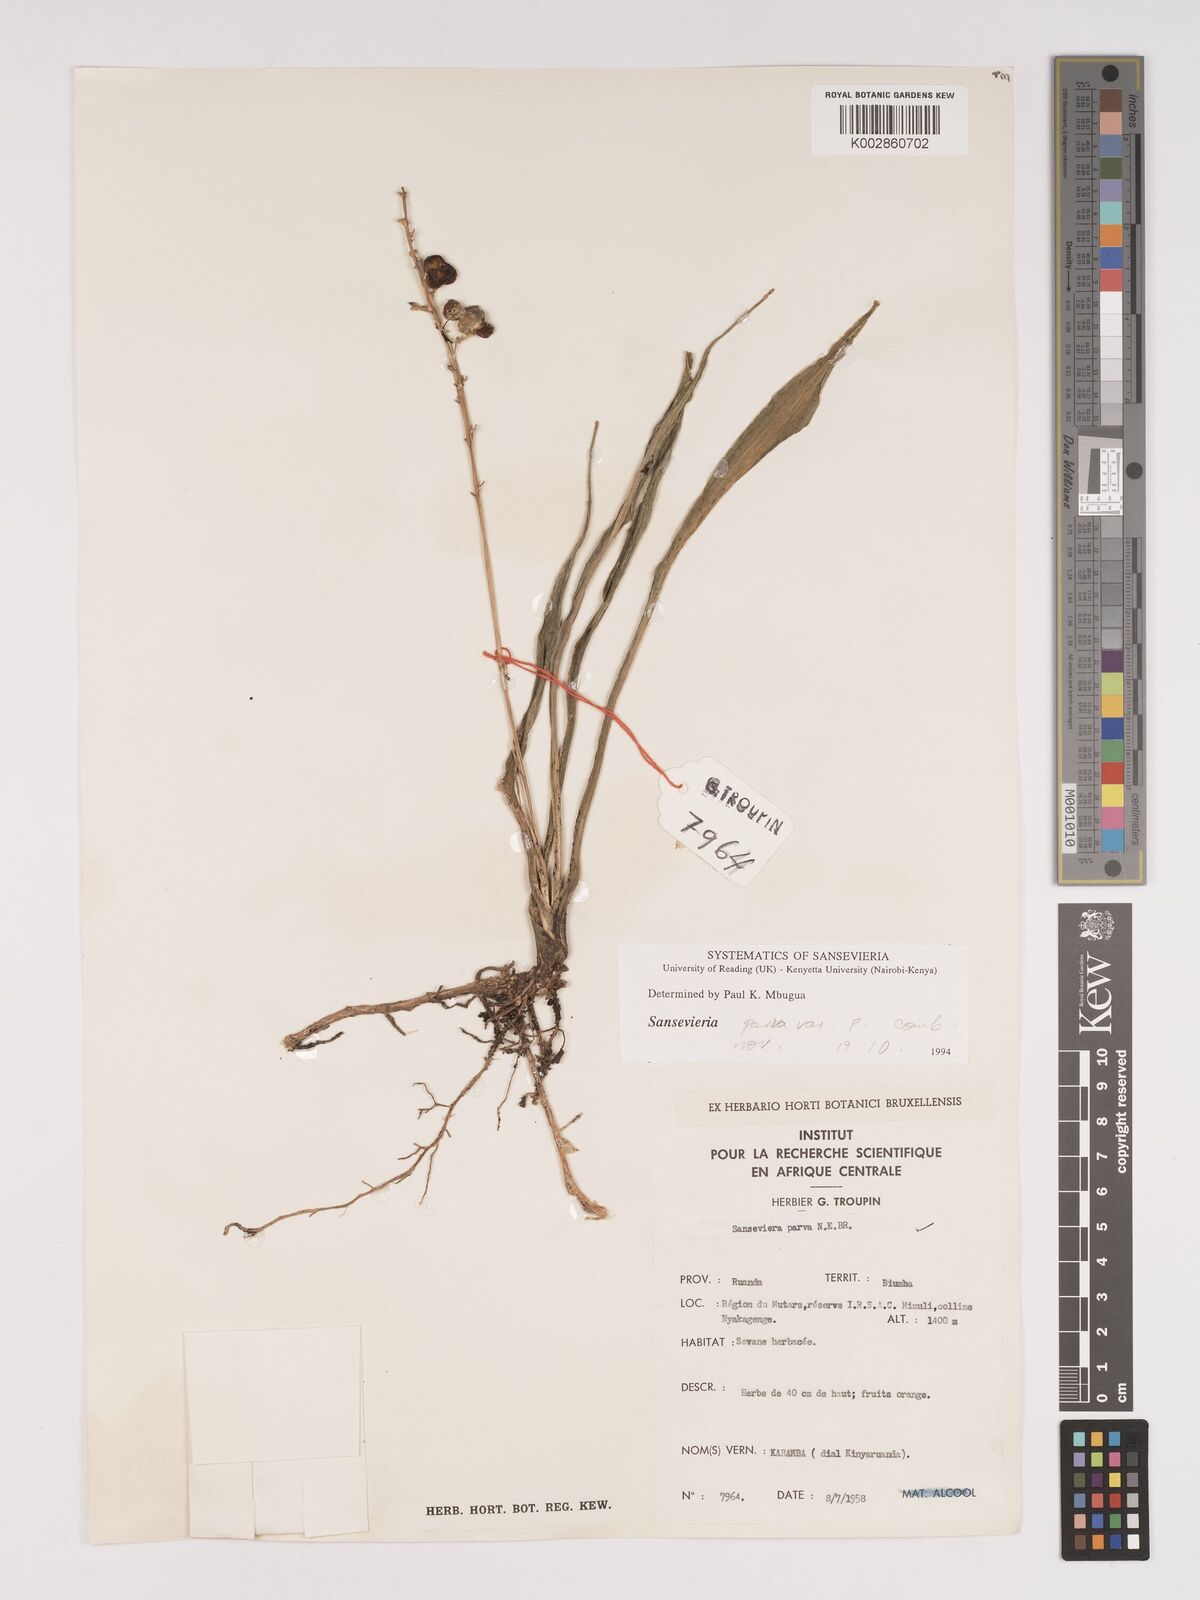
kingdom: Plantae
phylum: Tracheophyta
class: Liliopsida
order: Asparagales
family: Asparagaceae
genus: Dracaena
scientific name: Dracaena parva
